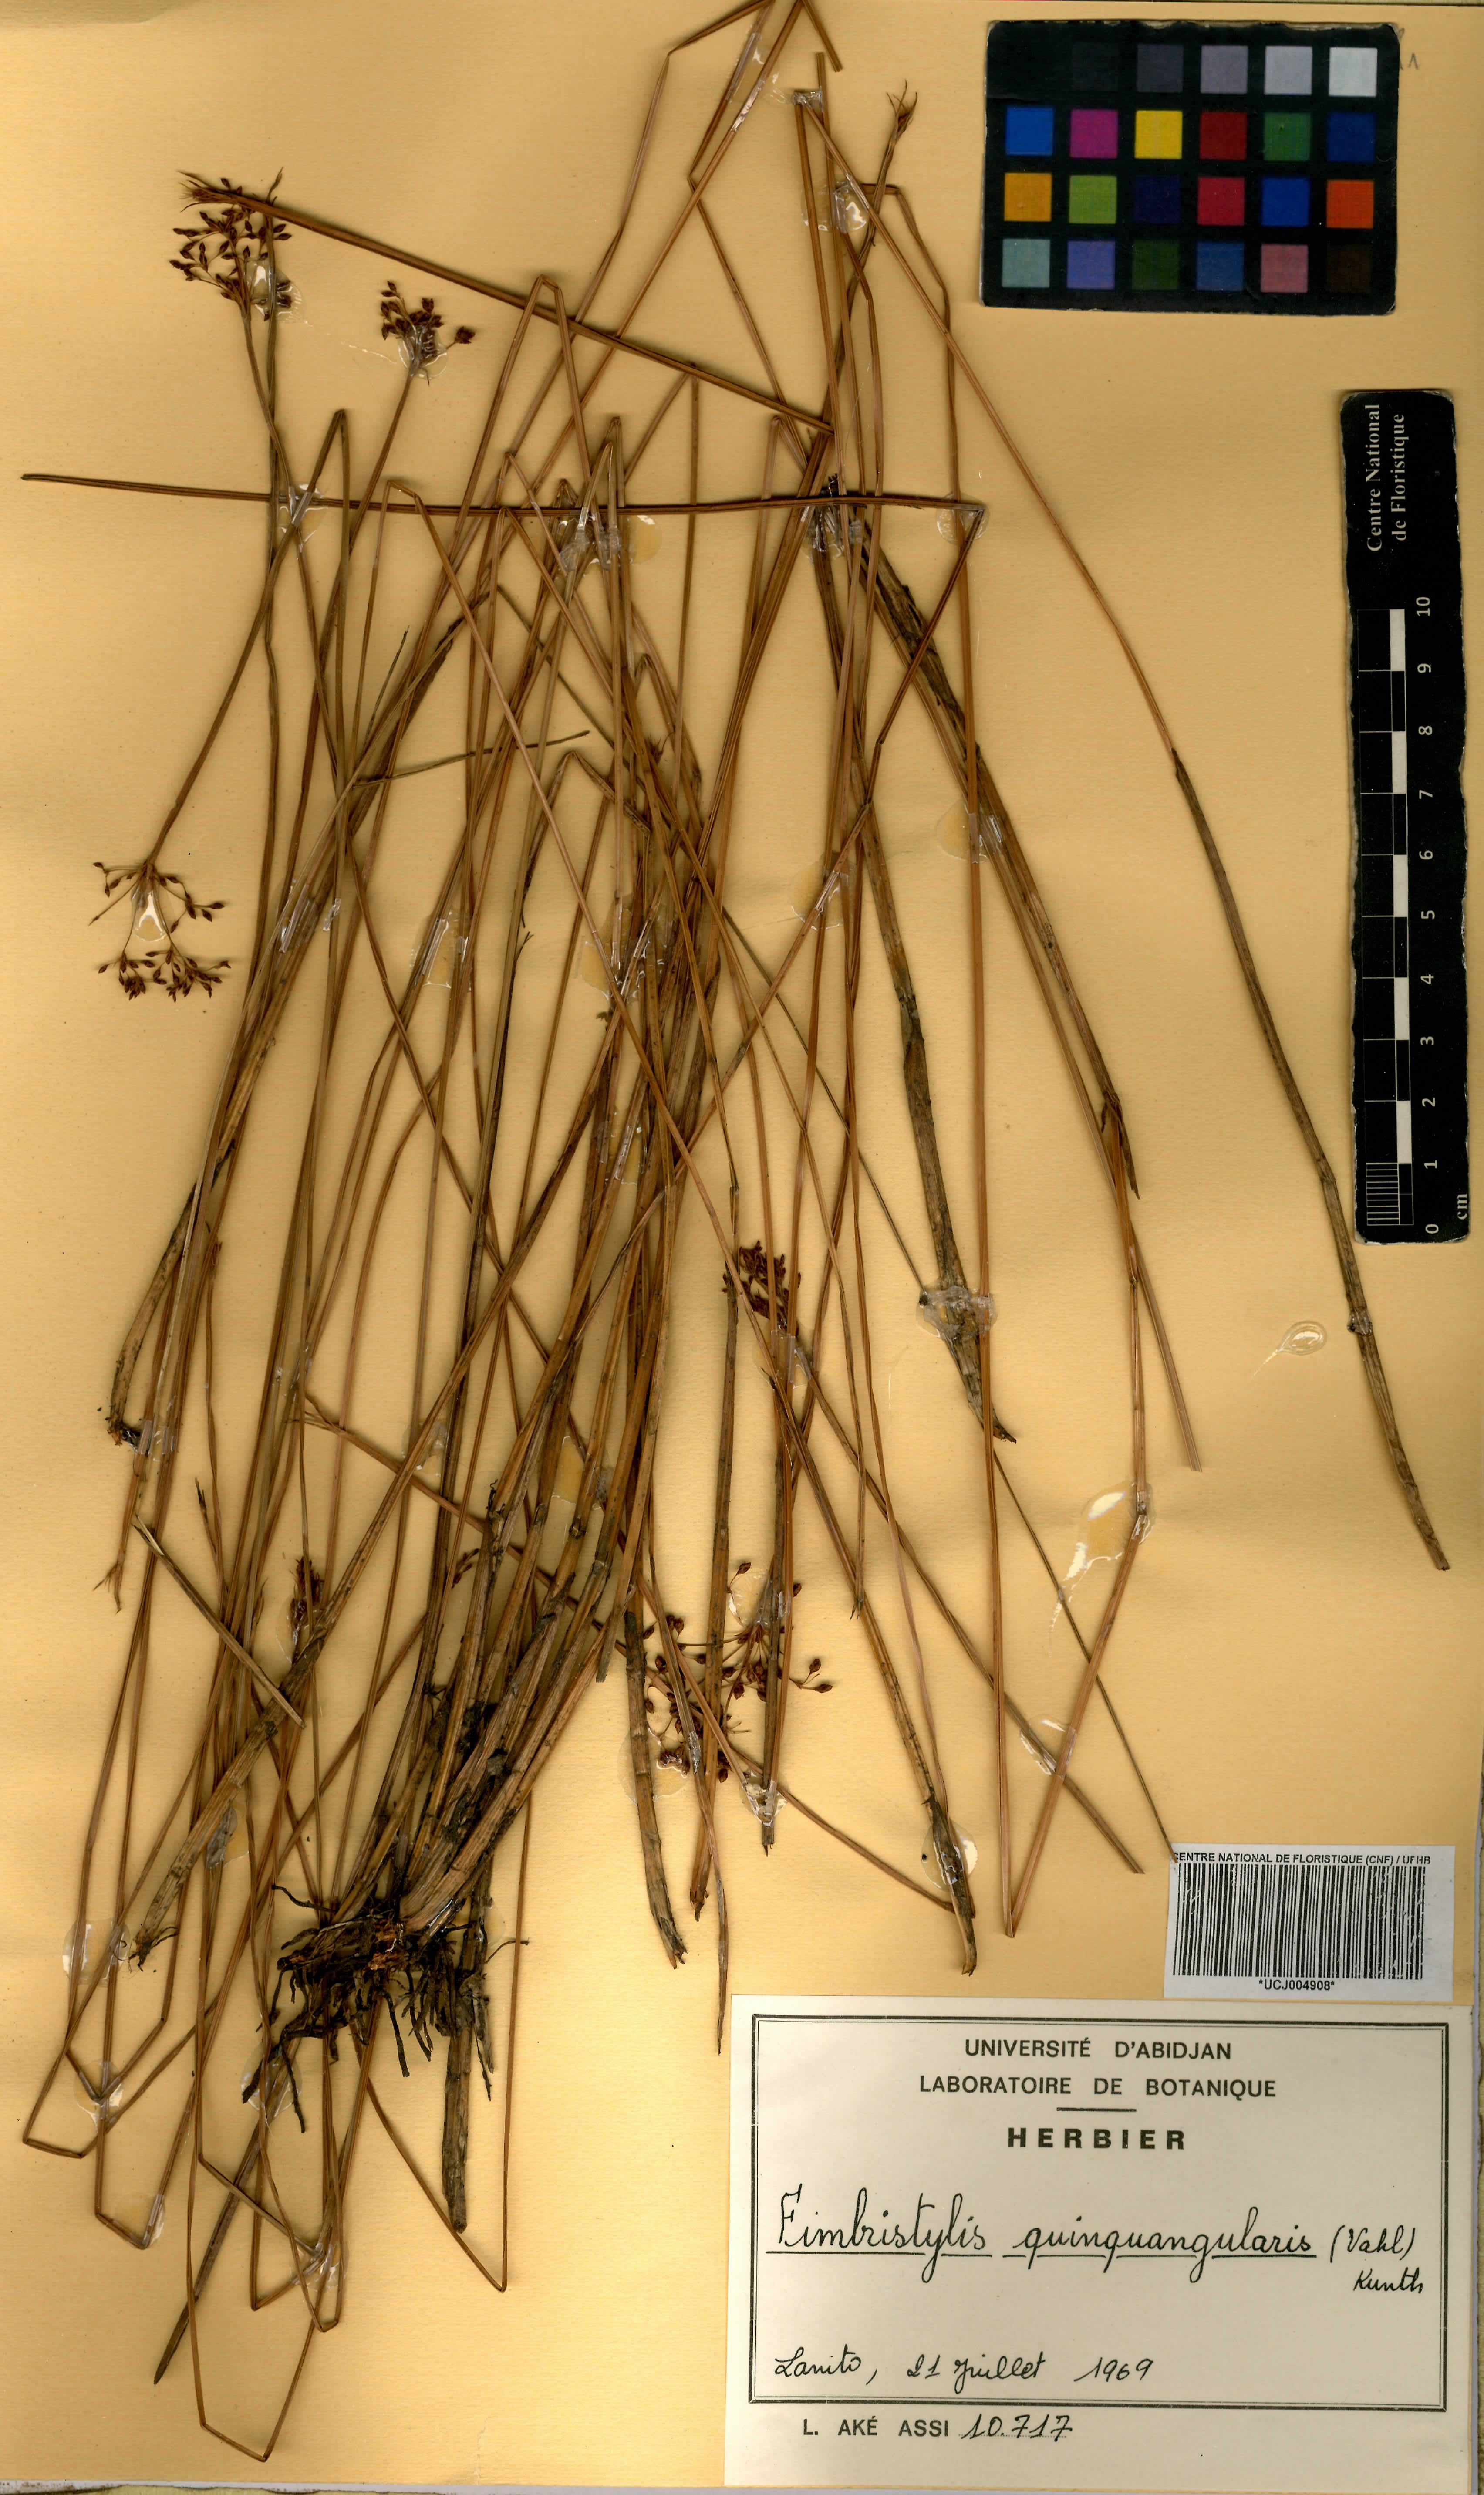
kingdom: Plantae
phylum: Tracheophyta
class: Liliopsida
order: Poales
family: Cyperaceae
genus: Fimbristylis
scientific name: Fimbristylis quinquangularis
